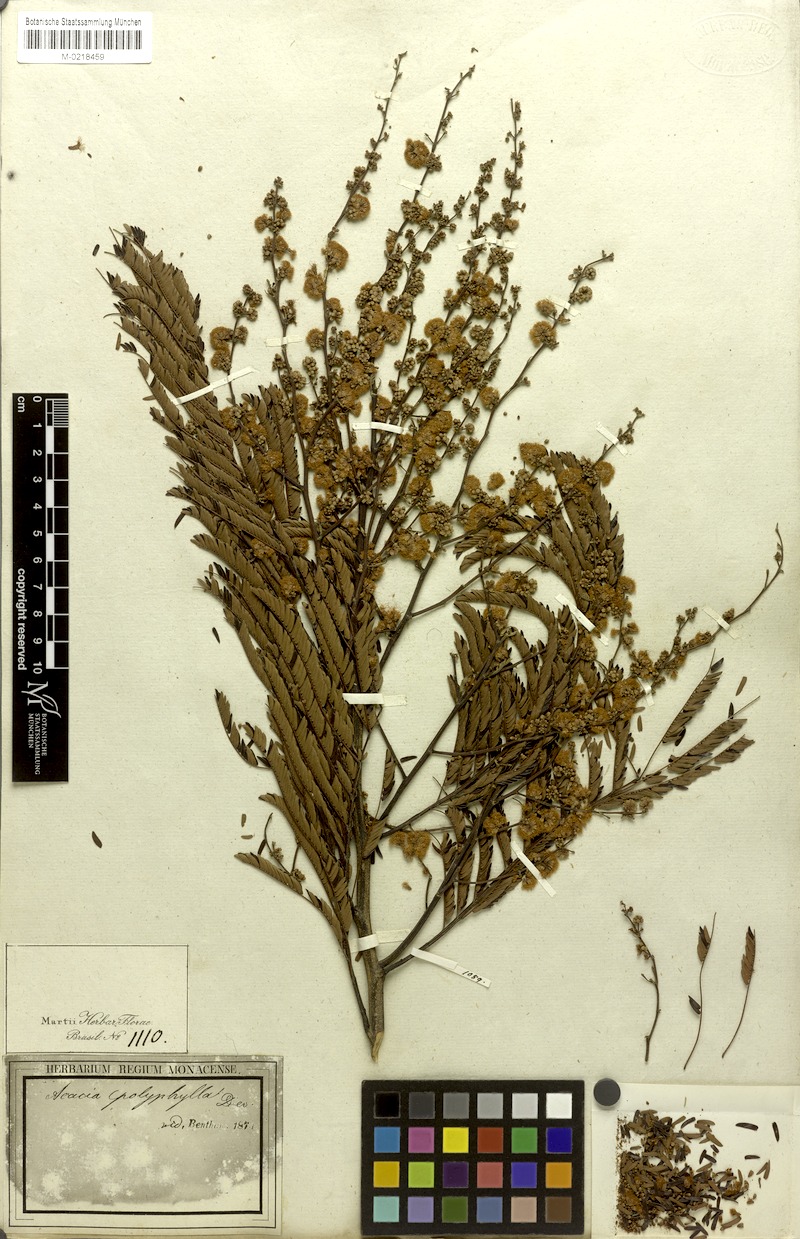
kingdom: Plantae
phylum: Tracheophyta
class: Magnoliopsida
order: Fabales
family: Fabaceae
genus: Senegalia
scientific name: Senegalia polyphylla
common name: White-tamarind
